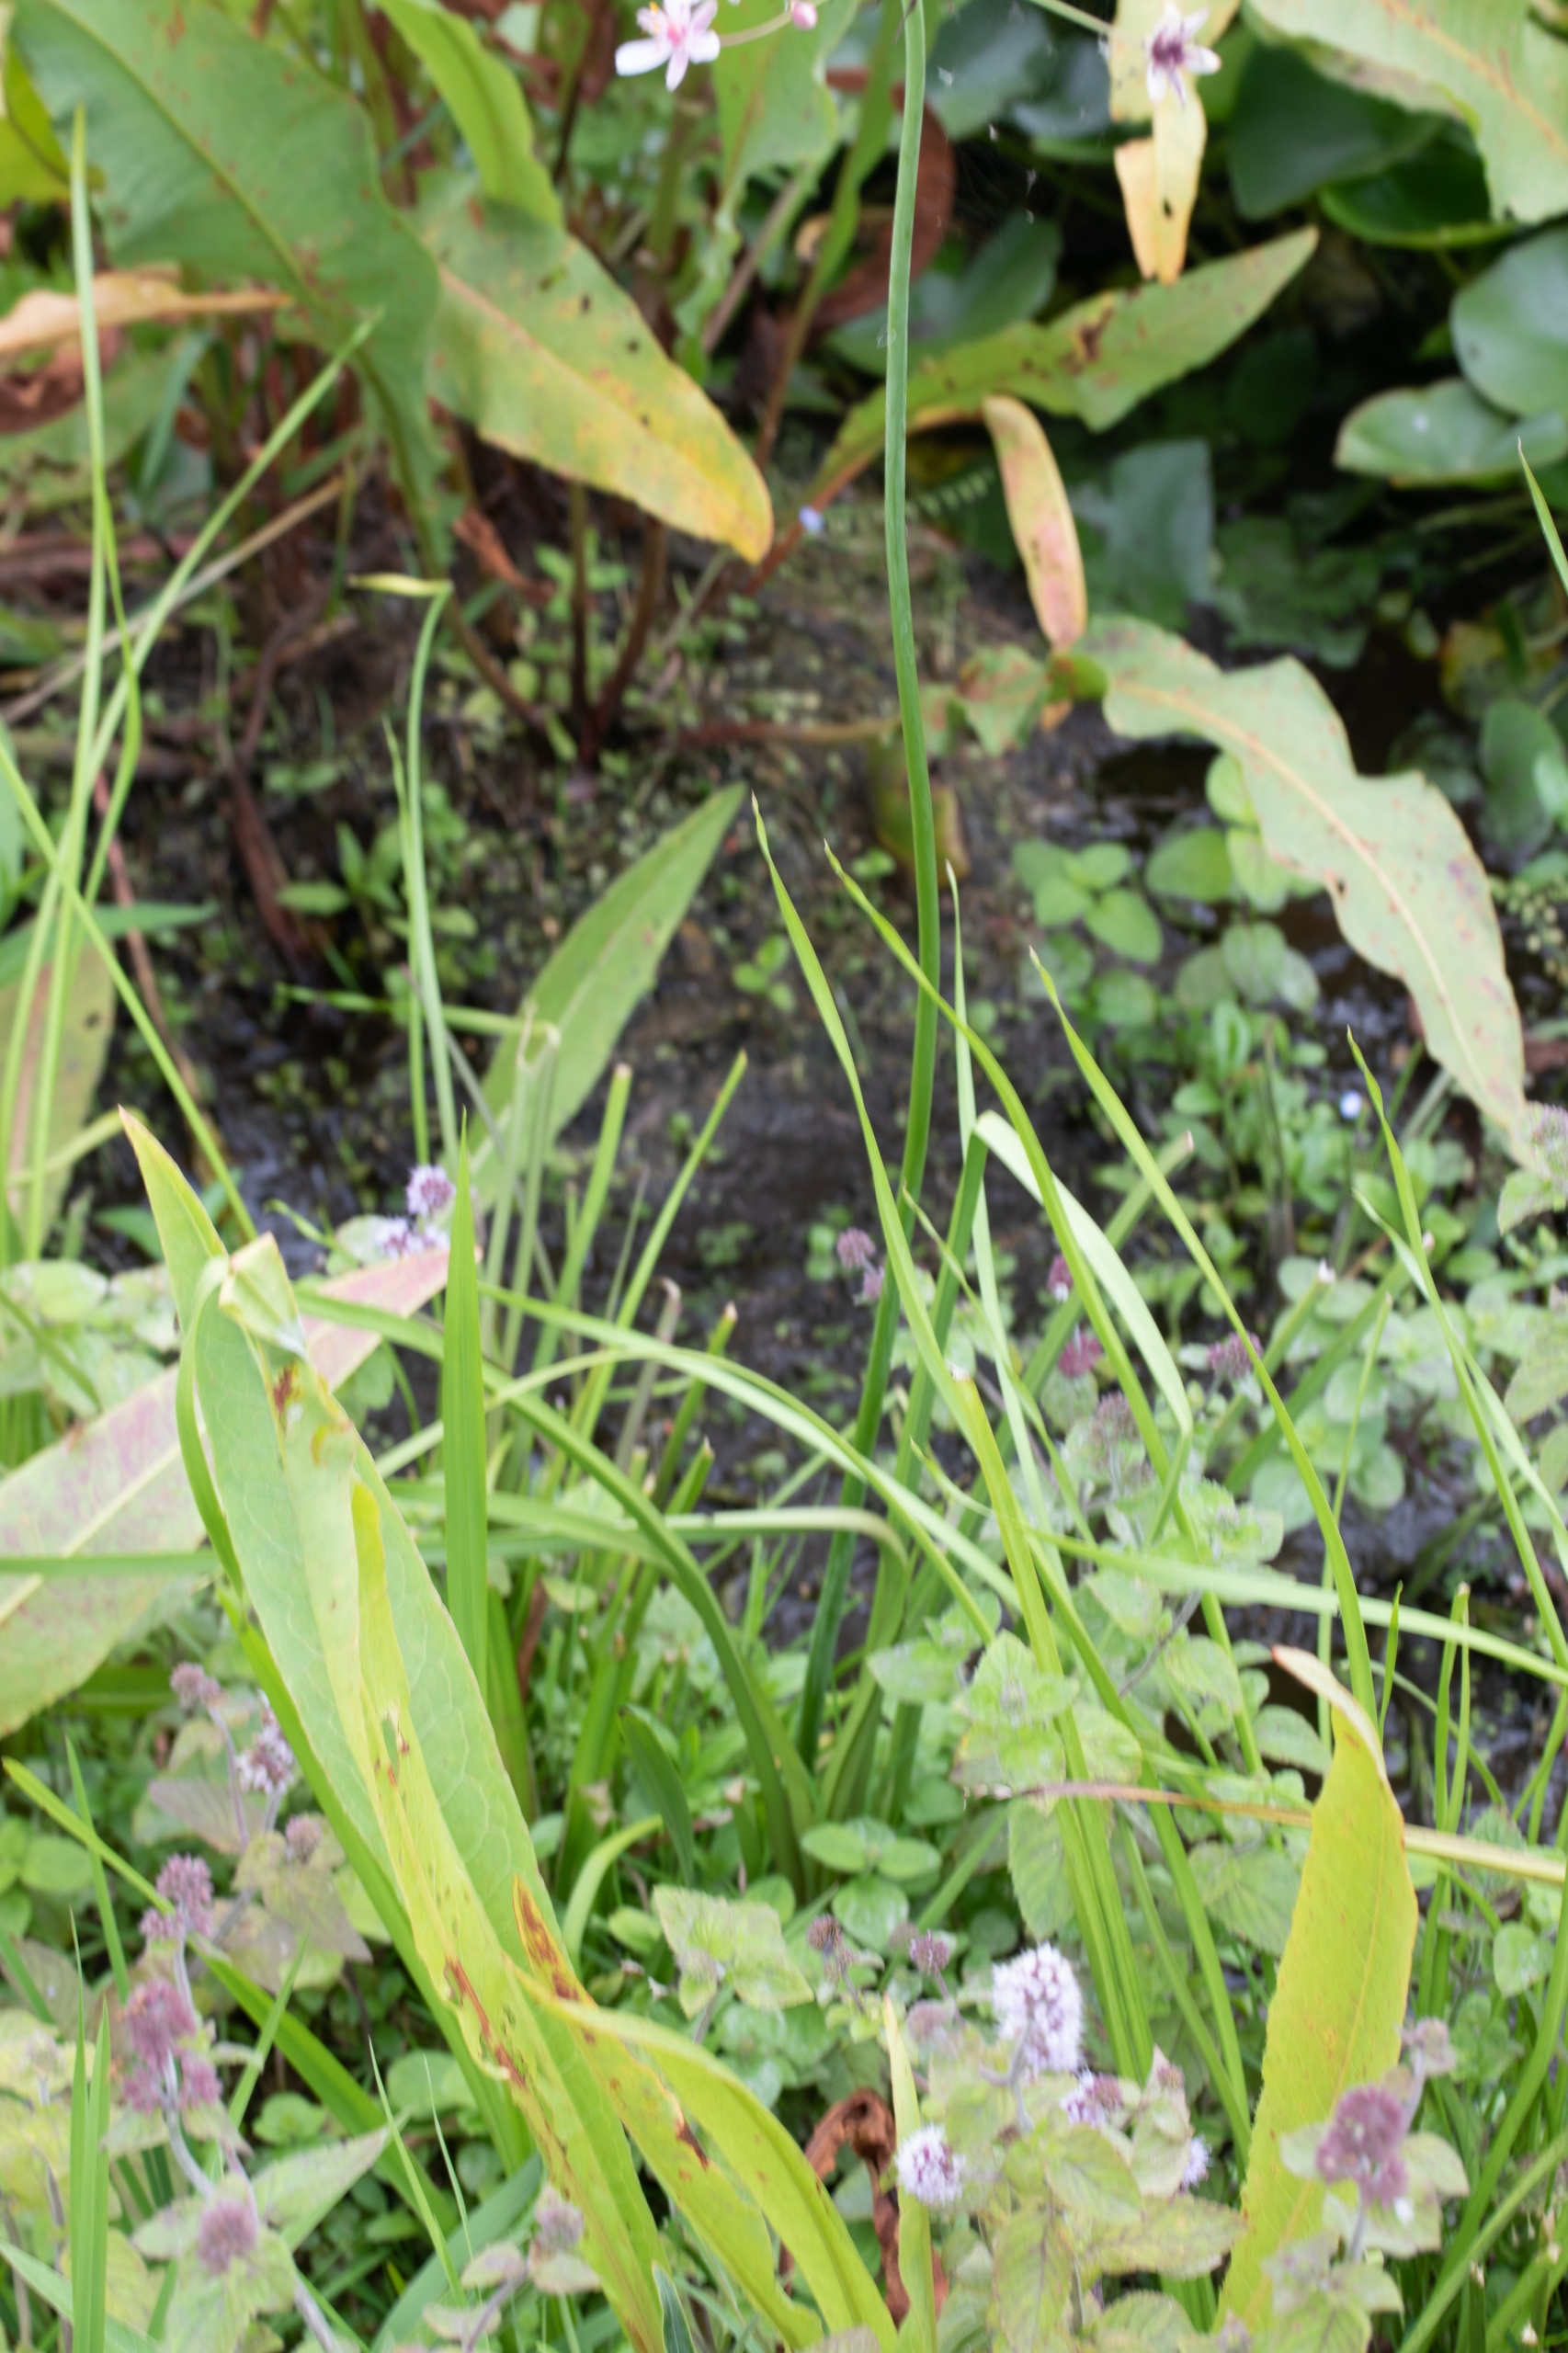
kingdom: Plantae
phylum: Tracheophyta
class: Liliopsida
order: Alismatales
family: Butomaceae
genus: Butomus
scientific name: Butomus umbellatus
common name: Brudelys
